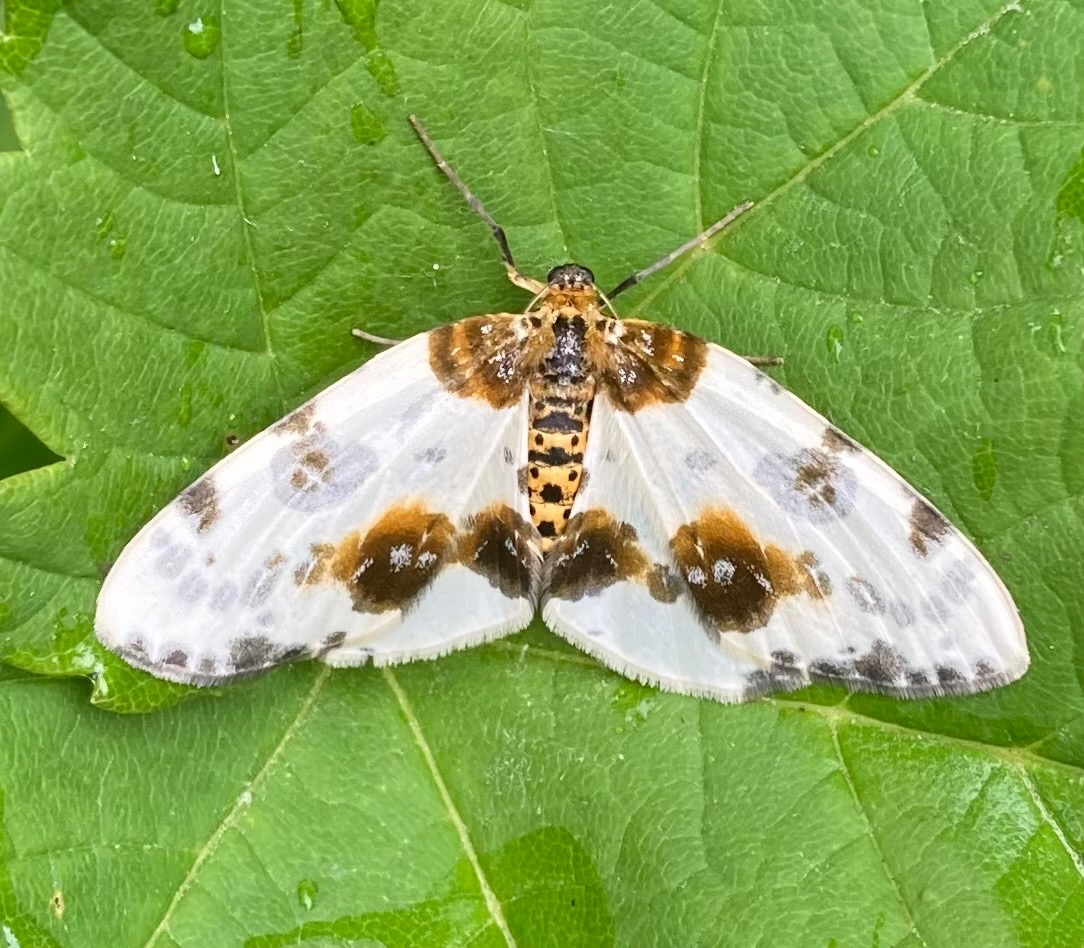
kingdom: Animalia
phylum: Arthropoda
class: Insecta
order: Lepidoptera
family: Geometridae
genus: Abraxas
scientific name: Abraxas sylvata
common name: Elmemåler
